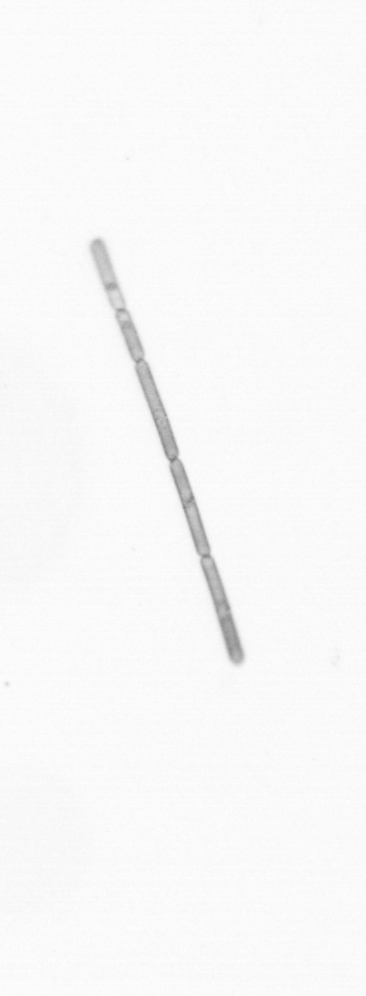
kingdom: Chromista
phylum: Ochrophyta
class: Bacillariophyceae
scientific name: Bacillariophyceae
